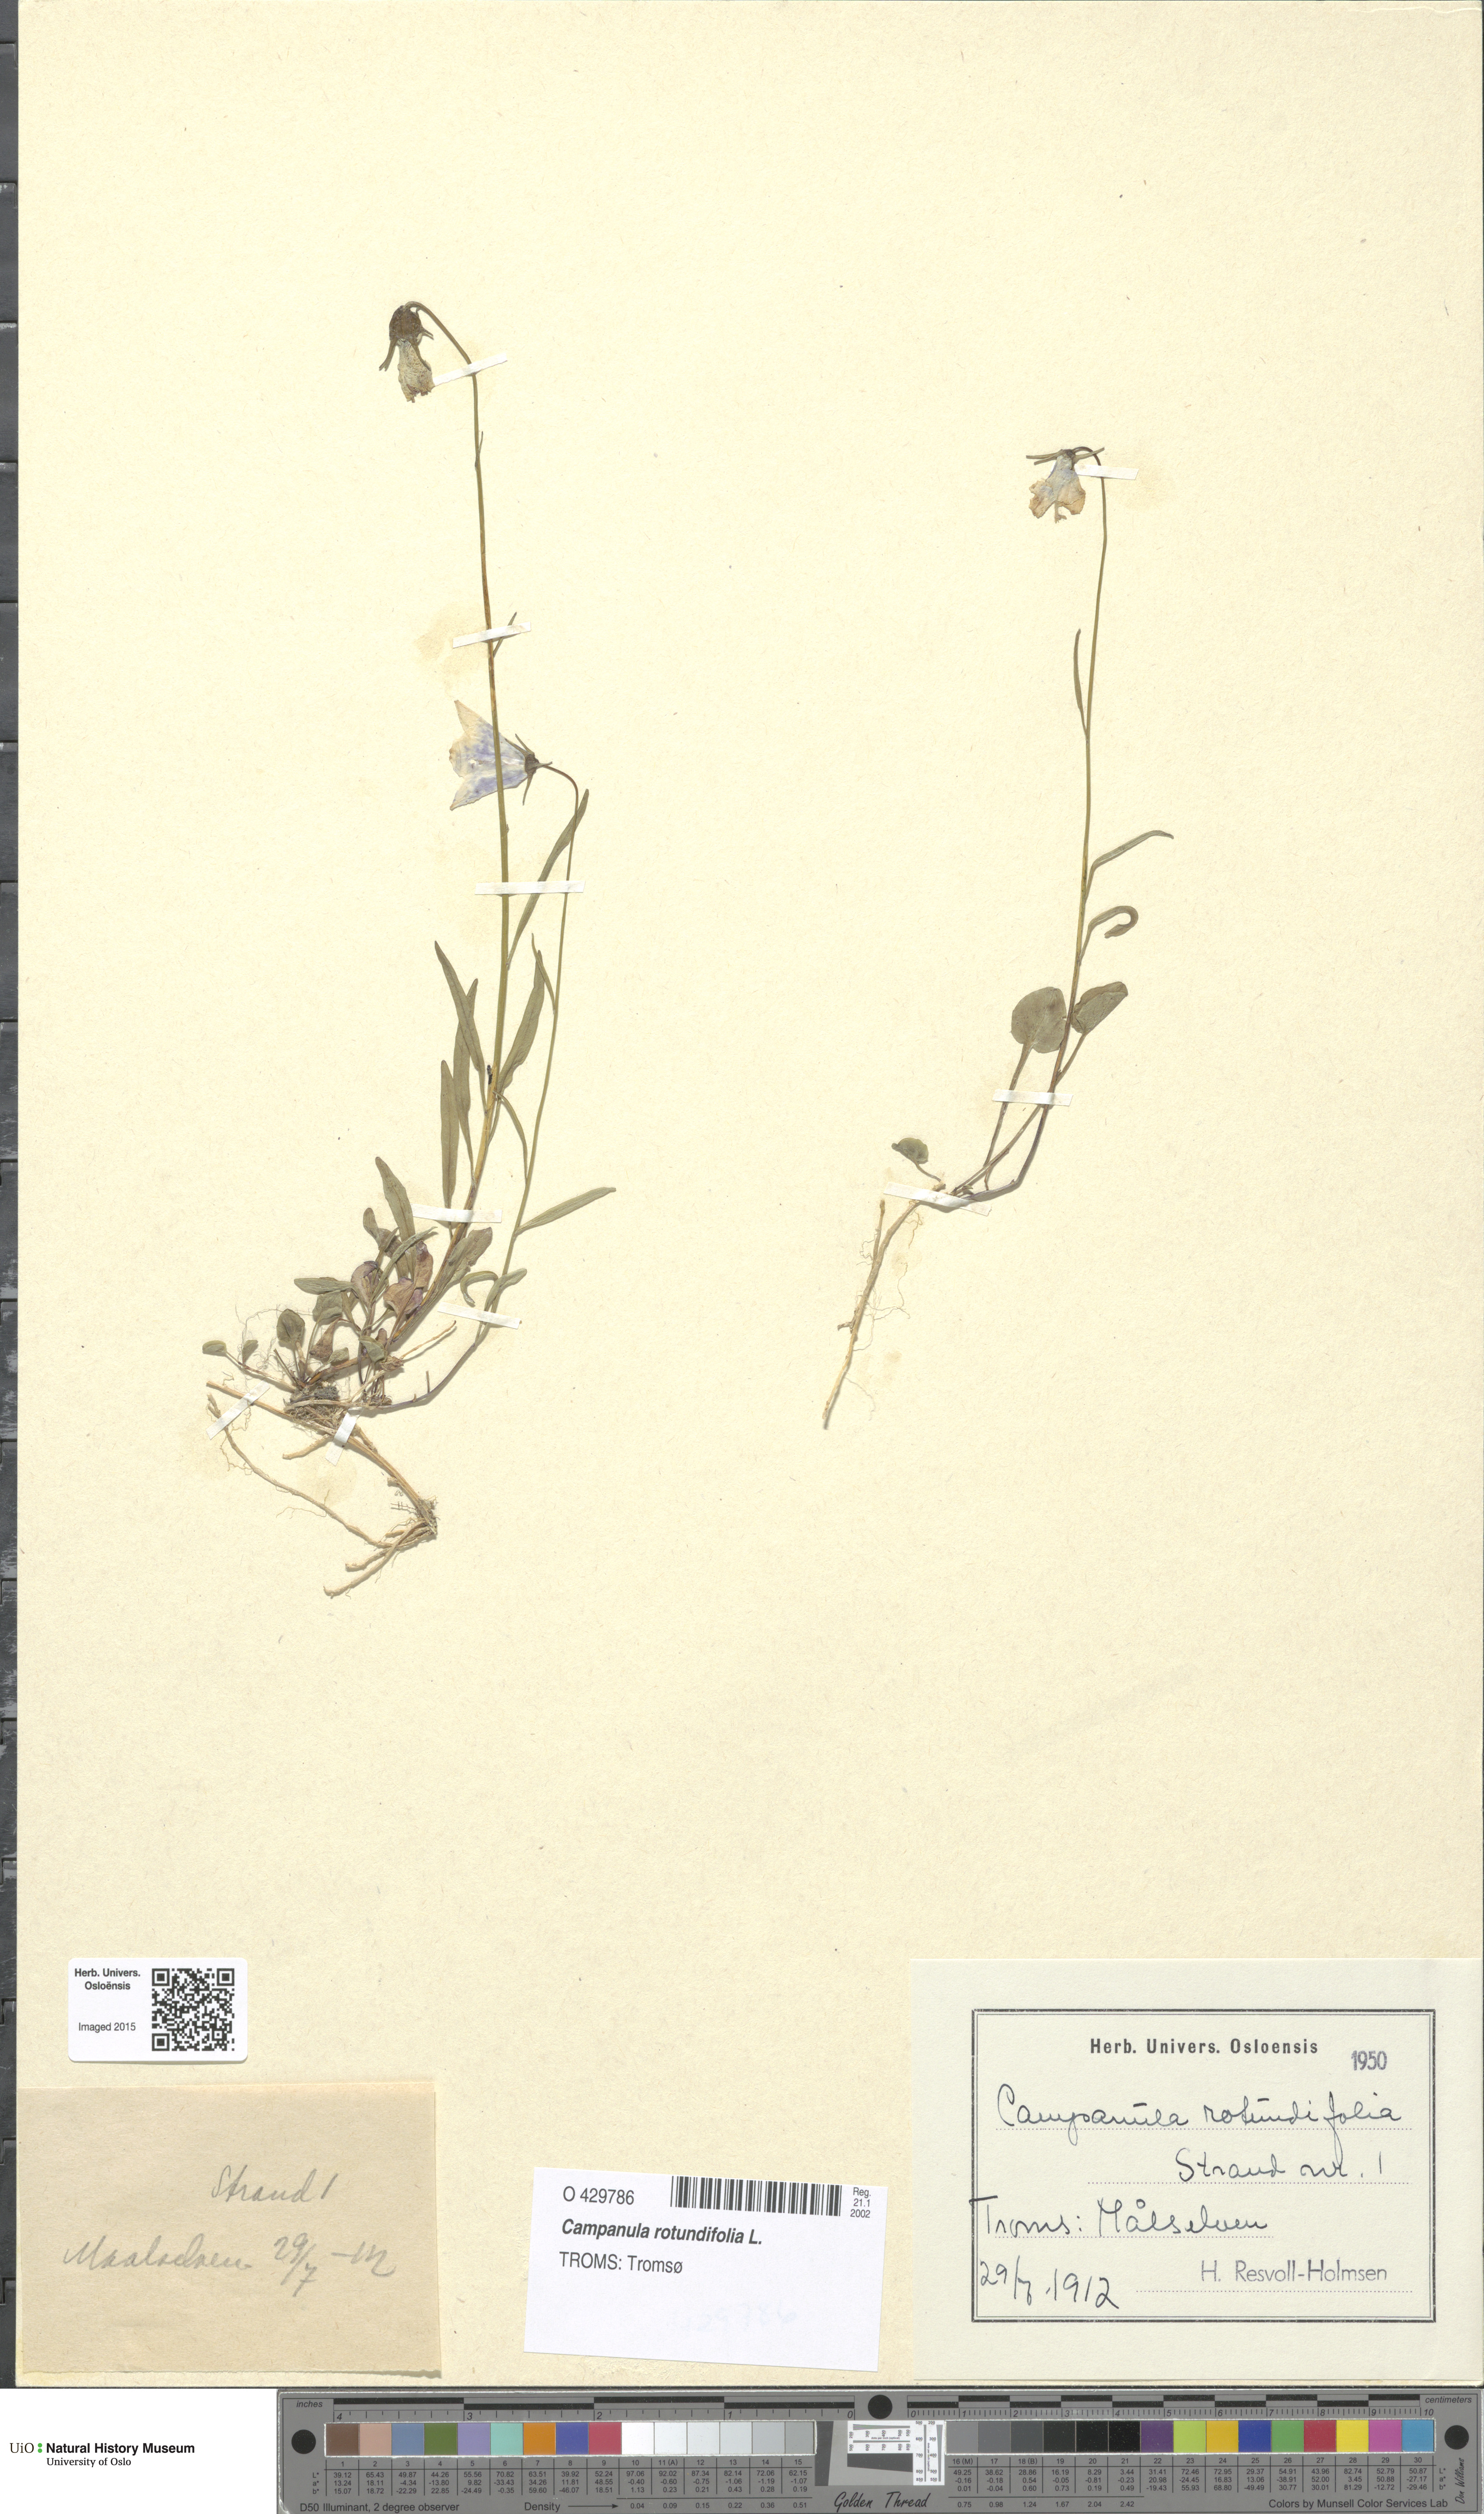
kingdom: Plantae
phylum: Tracheophyta
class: Magnoliopsida
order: Asterales
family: Campanulaceae
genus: Campanula
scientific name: Campanula rotundifolia
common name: Harebell
